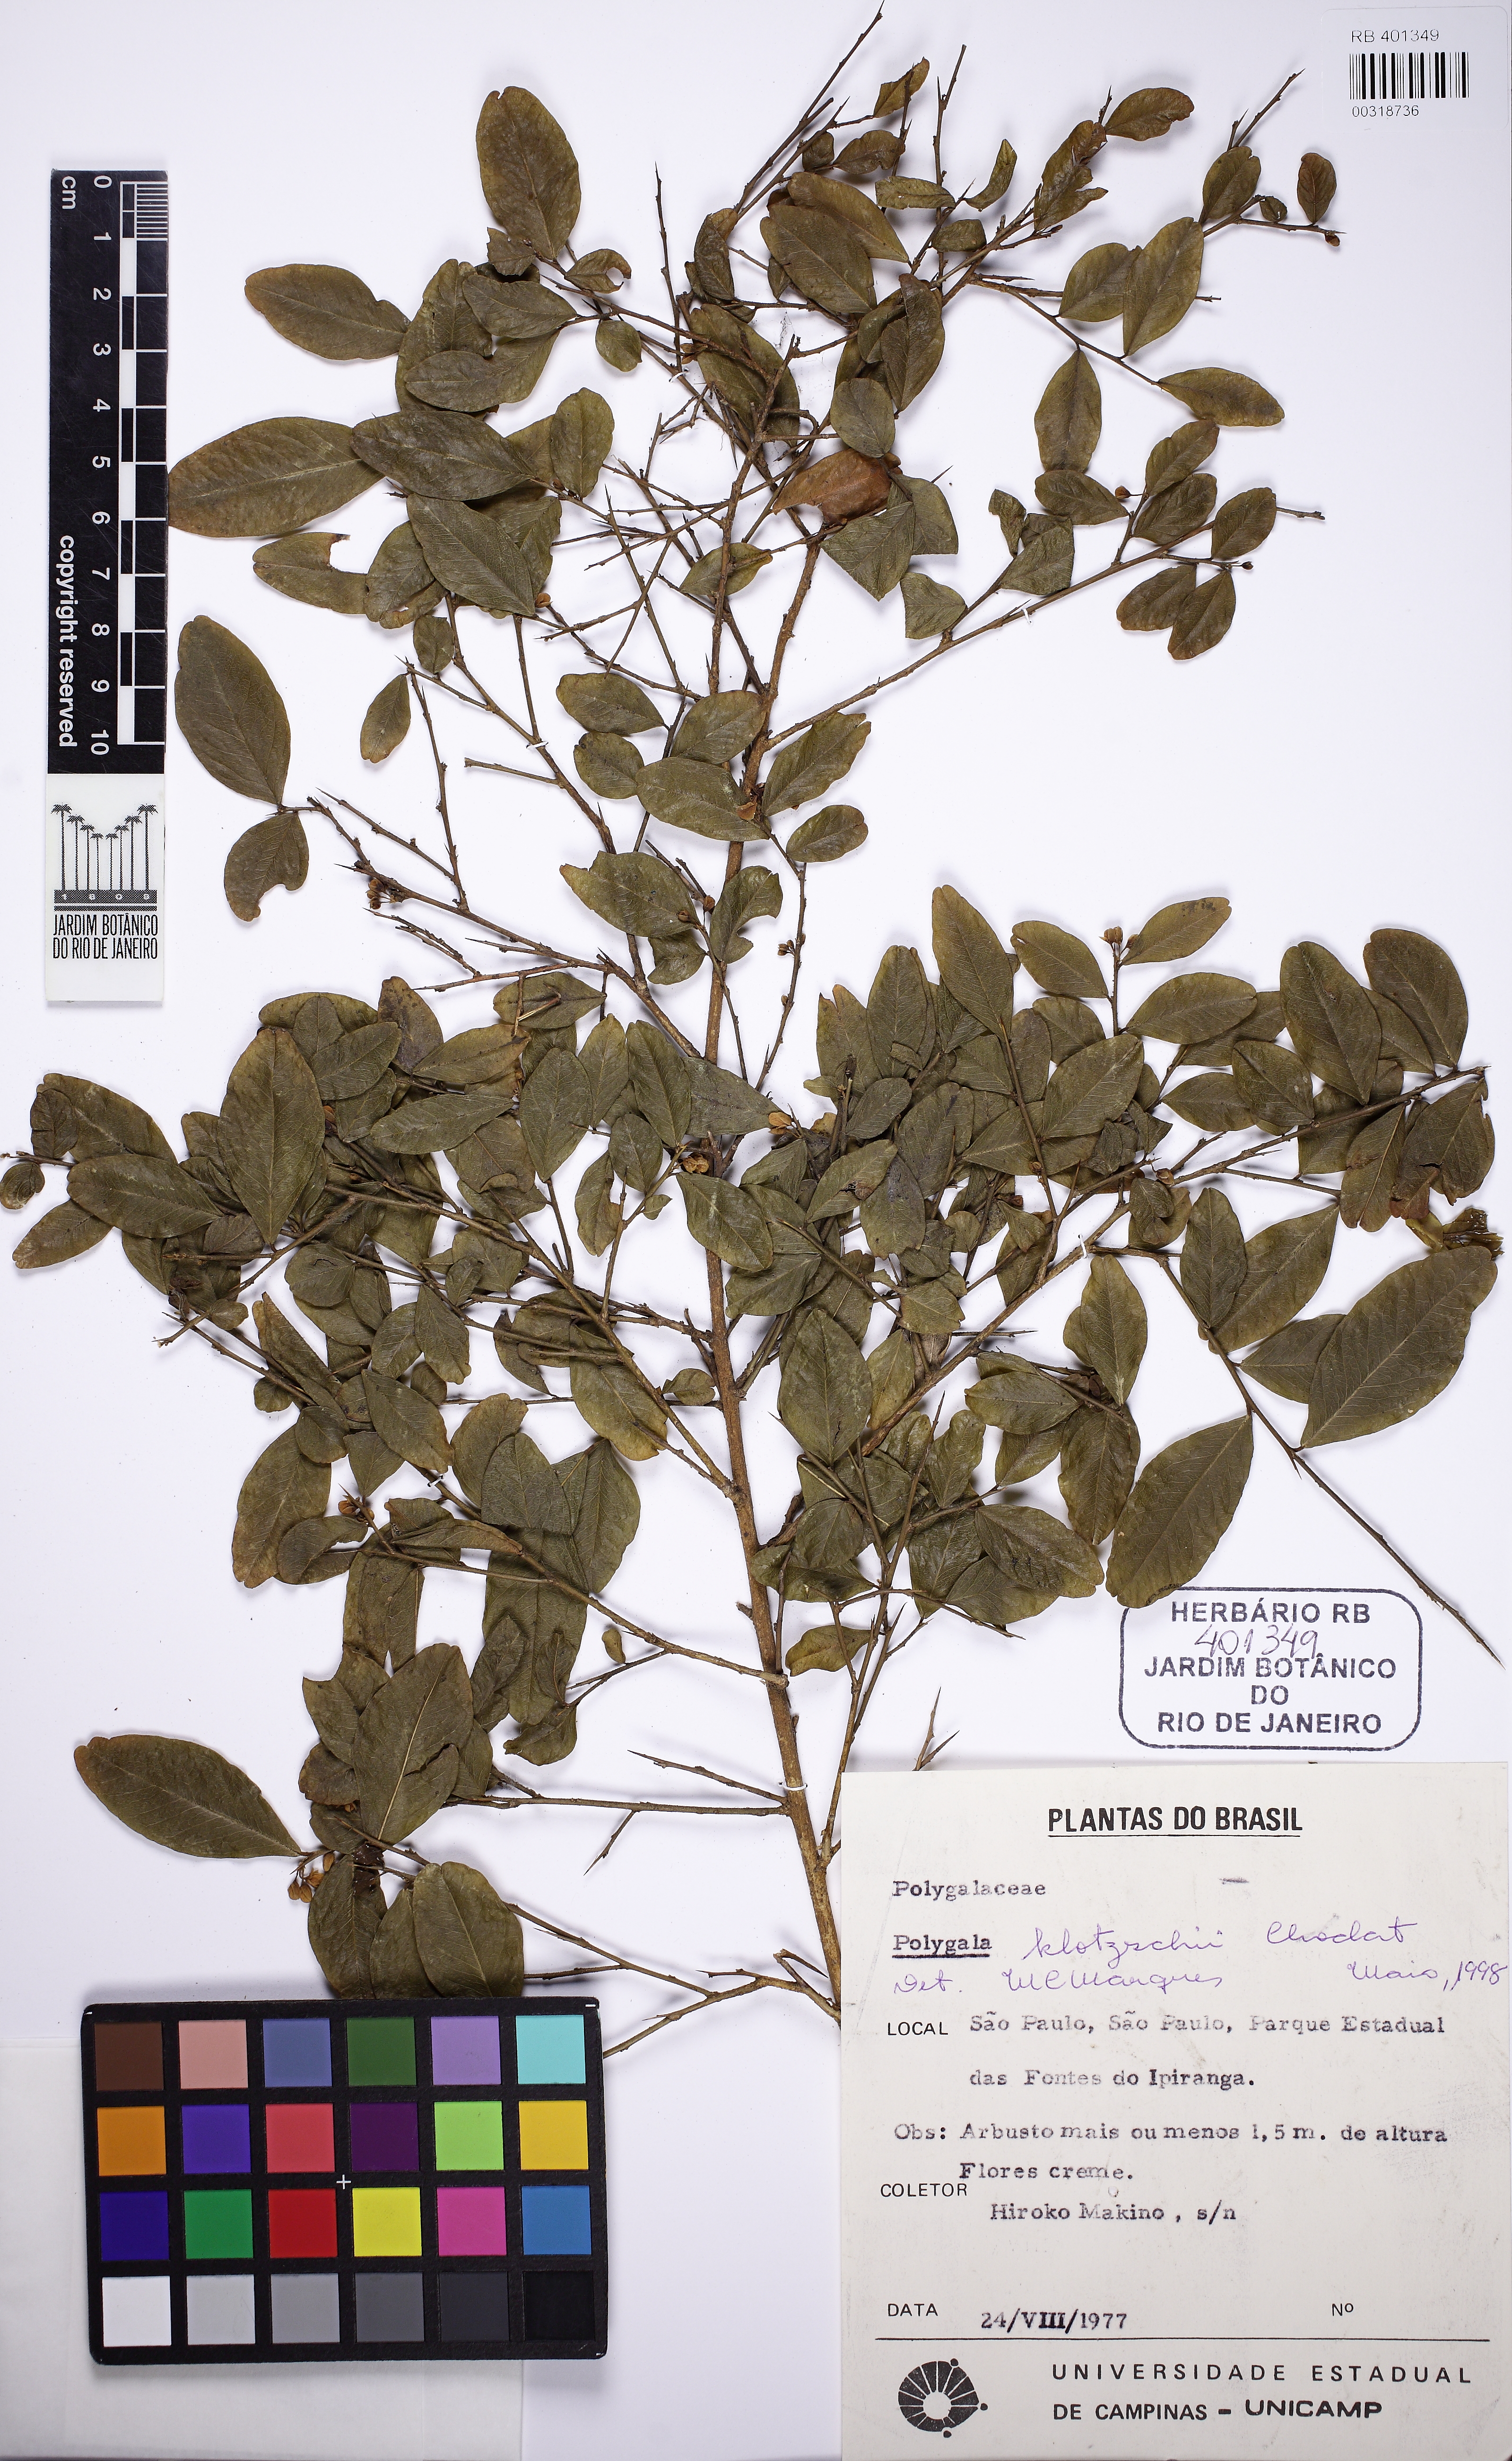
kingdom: Plantae
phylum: Tracheophyta
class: Magnoliopsida
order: Fabales
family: Polygalaceae
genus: Acanthocladus
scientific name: Acanthocladus brasiliensis
